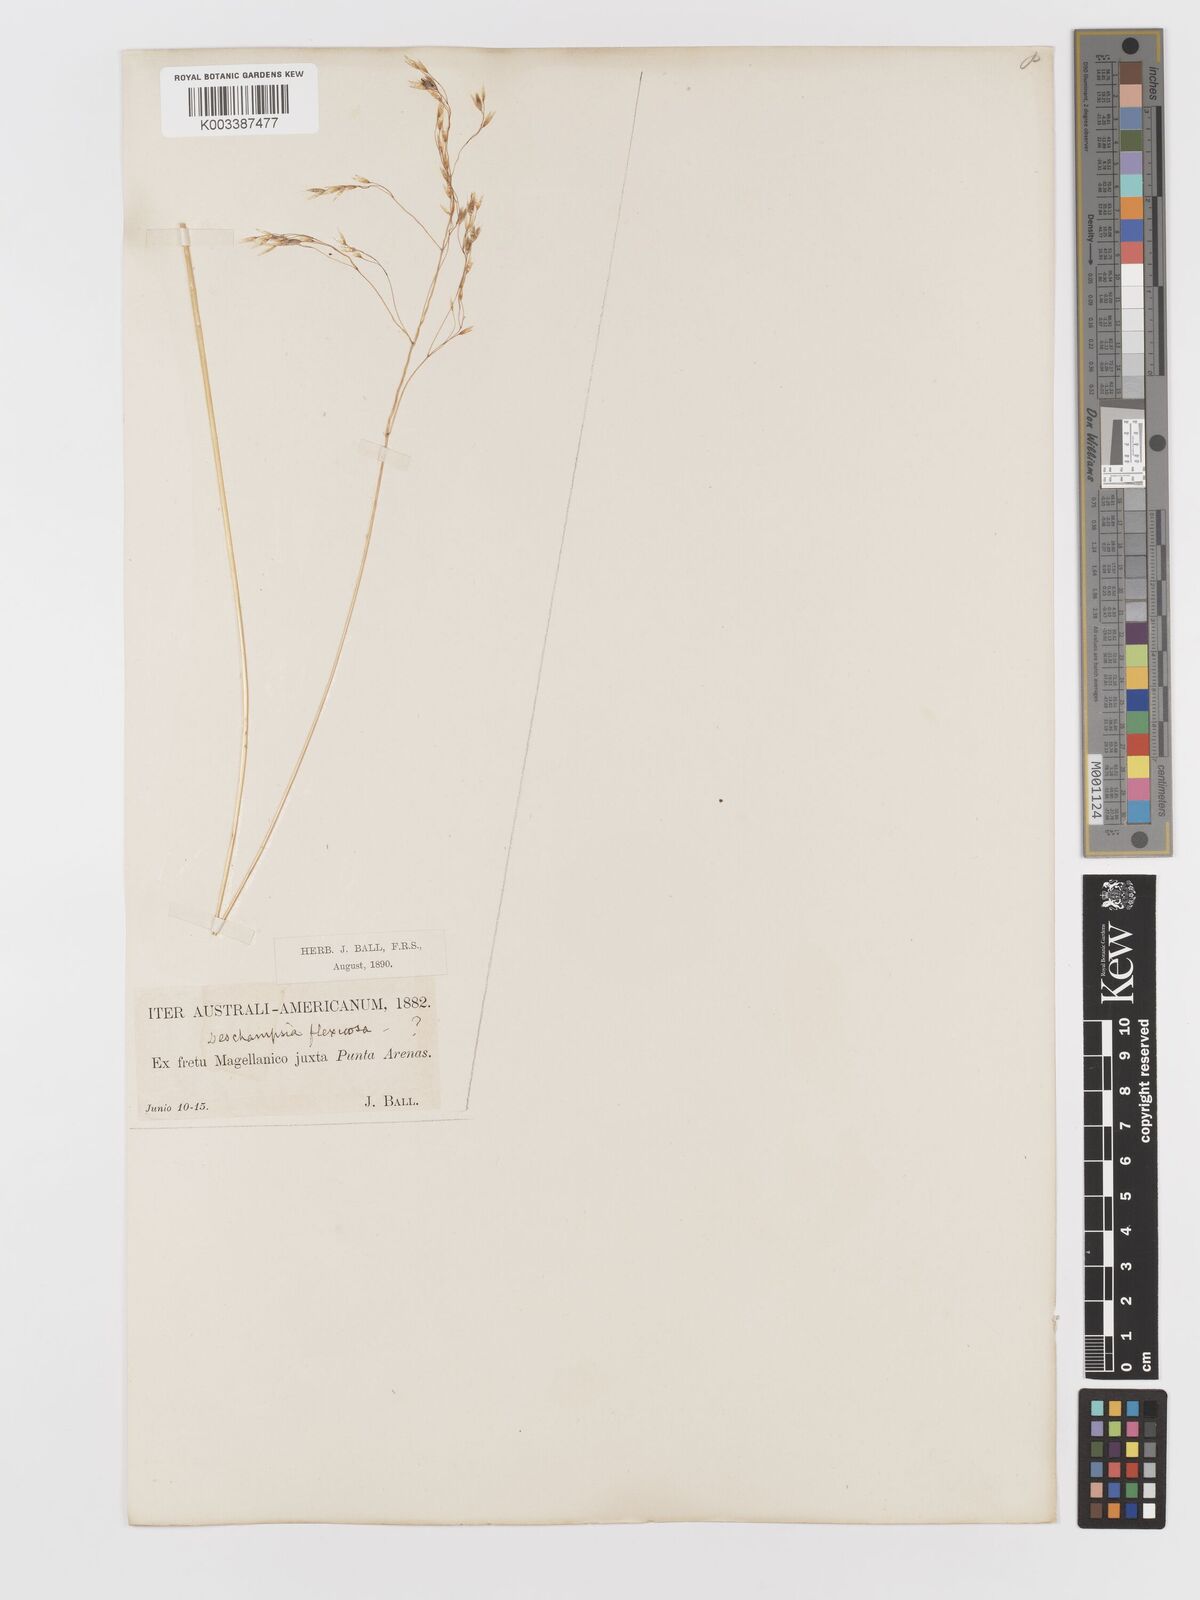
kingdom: Plantae
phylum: Tracheophyta
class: Liliopsida
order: Poales
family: Poaceae
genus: Avenella
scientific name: Avenella flexuosa
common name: Wavy hairgrass
